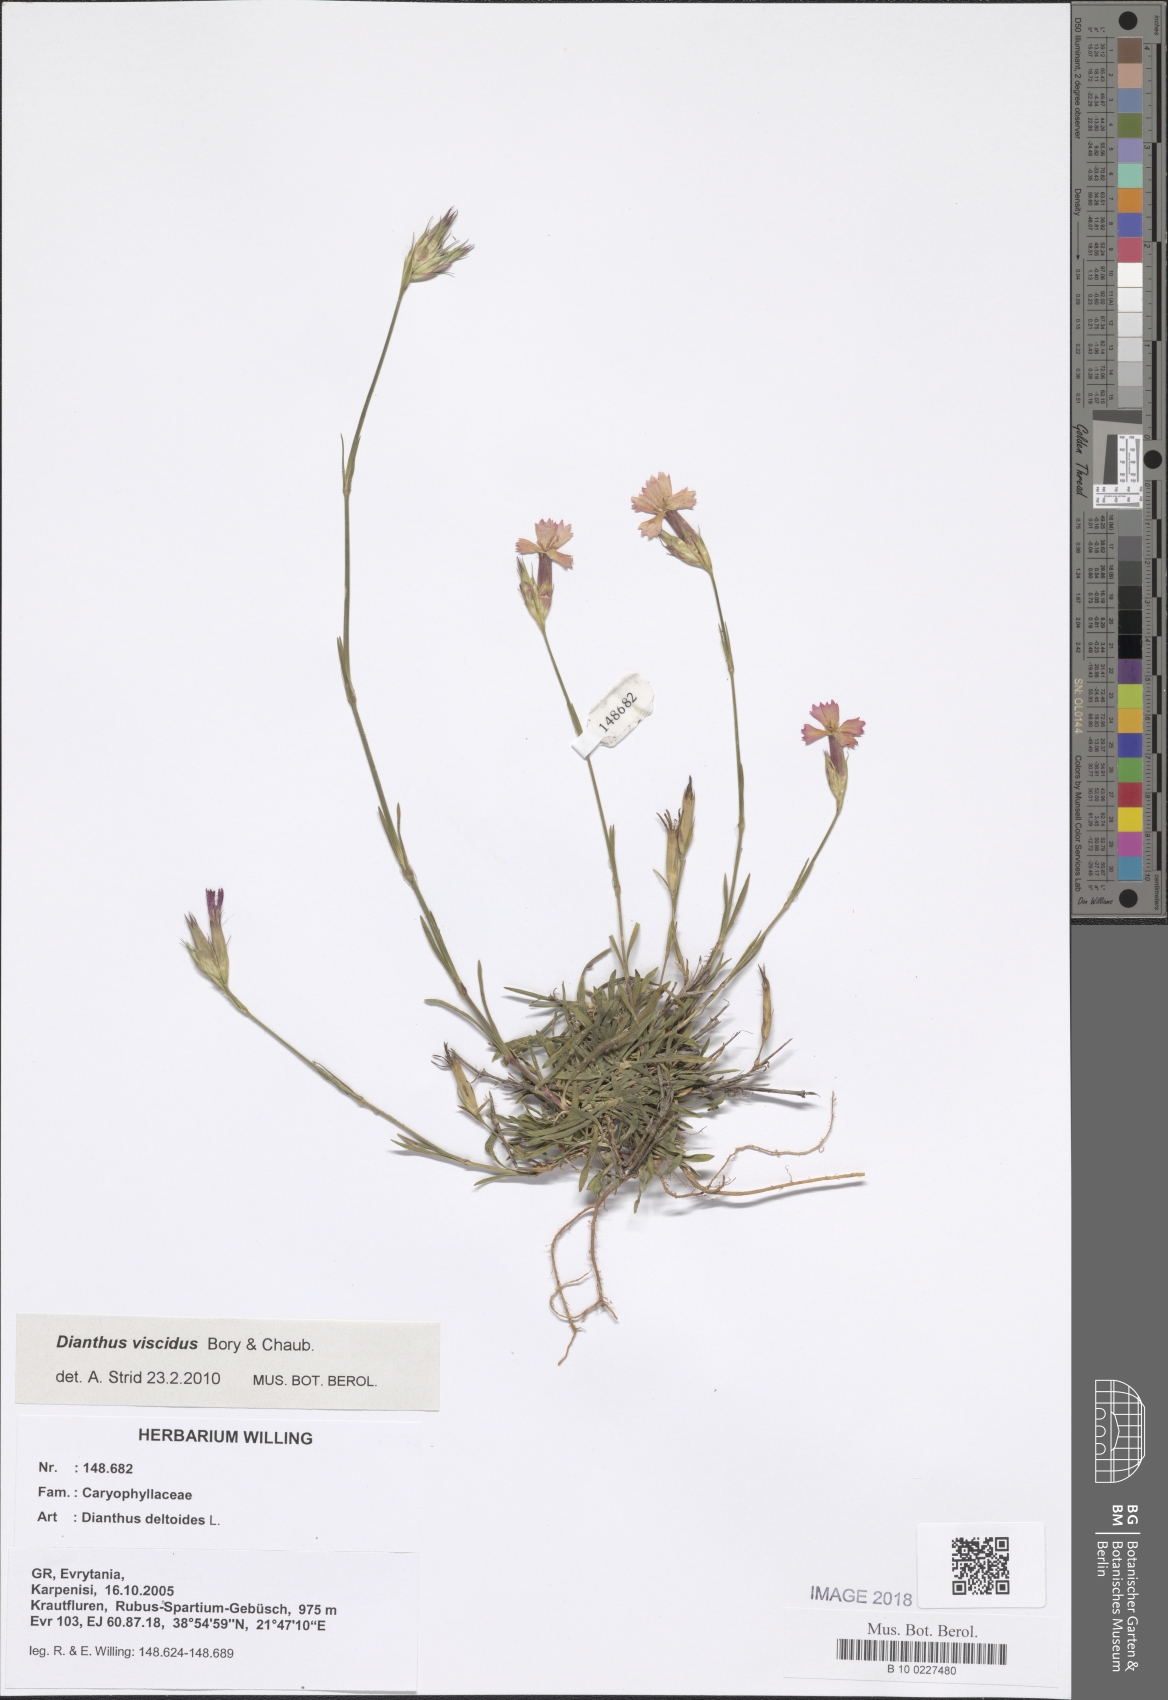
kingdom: Plantae
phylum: Tracheophyta
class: Magnoliopsida
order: Caryophyllales
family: Caryophyllaceae
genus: Dianthus
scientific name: Dianthus deltoides
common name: Maiden pink
